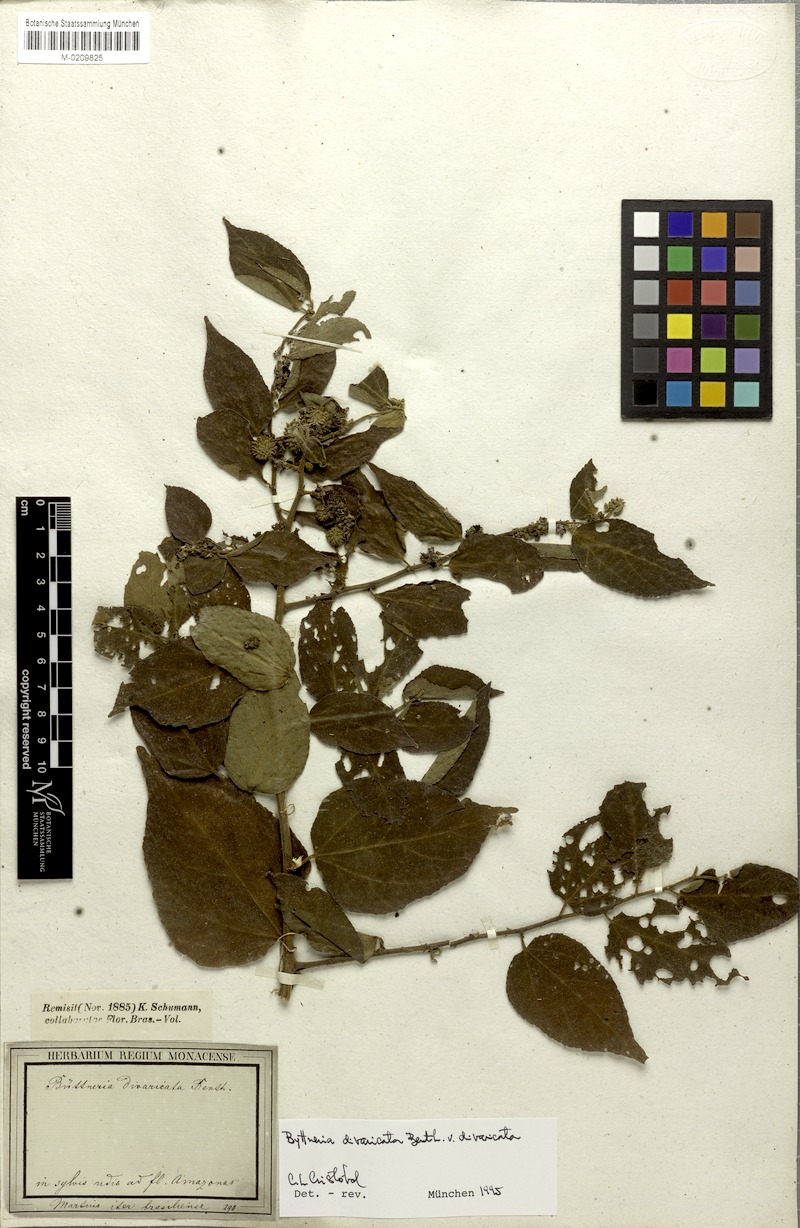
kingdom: Plantae
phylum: Tracheophyta
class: Magnoliopsida
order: Malvales
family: Malvaceae
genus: Byttneria
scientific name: Byttneria divaricata
